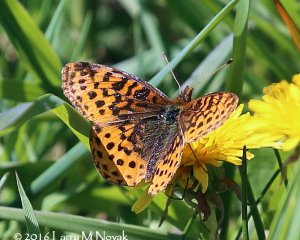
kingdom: Animalia
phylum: Arthropoda
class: Insecta
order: Lepidoptera
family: Nymphalidae
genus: Clossiana
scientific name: Clossiana toddi
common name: Meadow Fritillary
